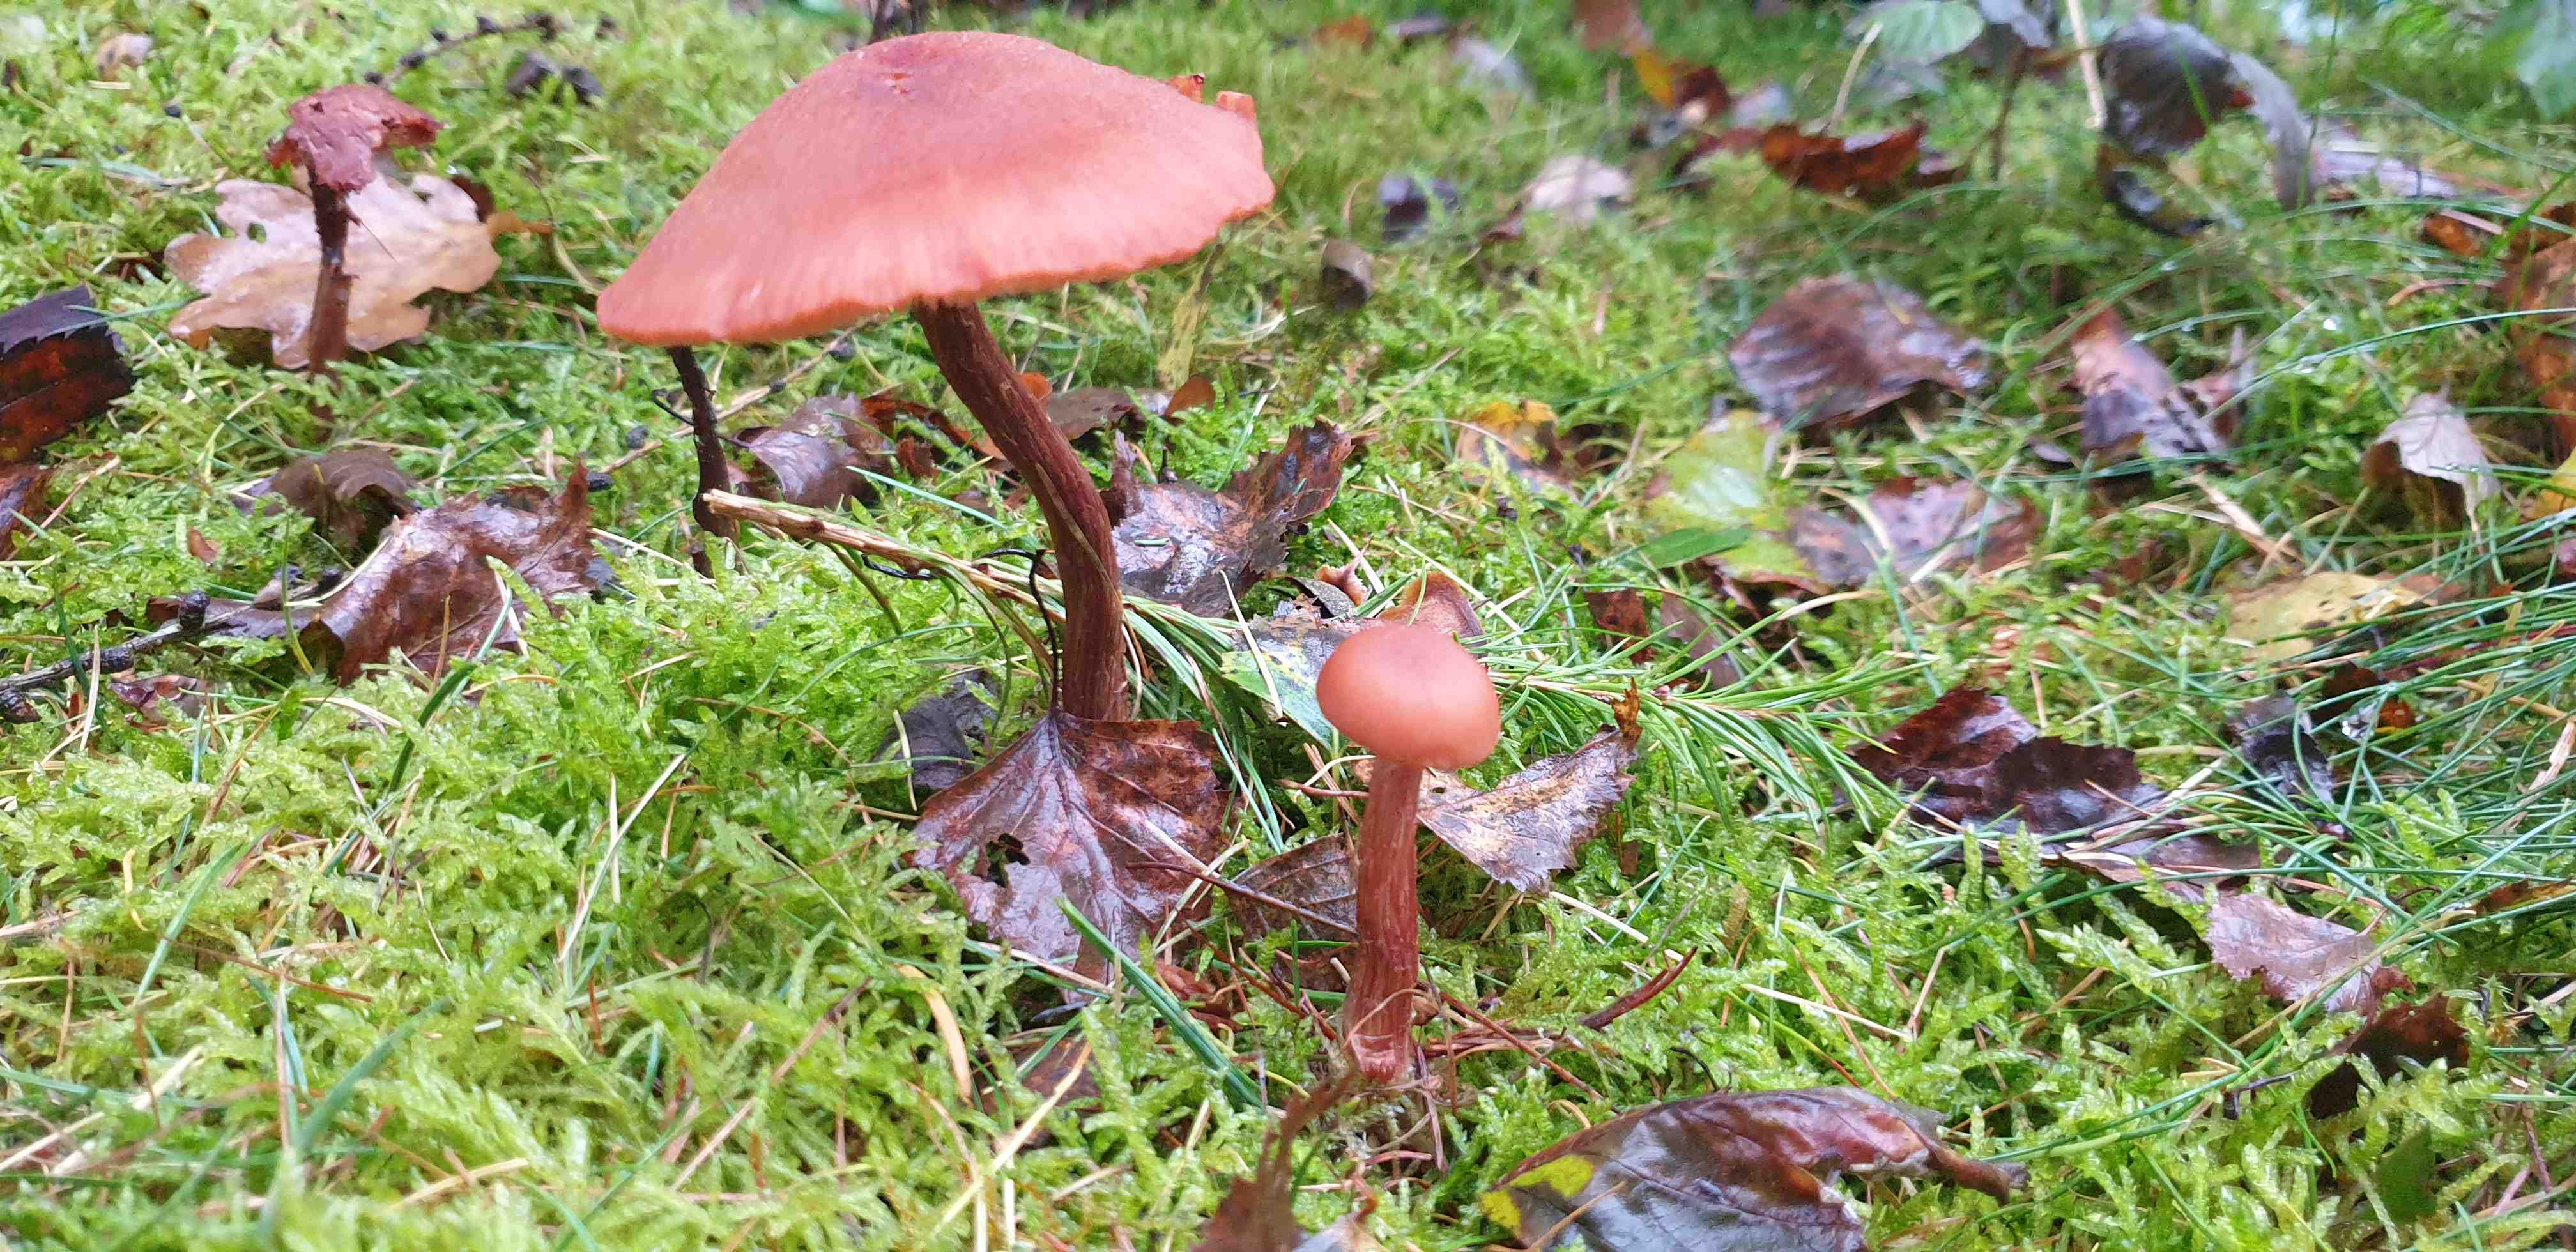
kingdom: Fungi
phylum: Basidiomycota
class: Agaricomycetes
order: Agaricales
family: Hydnangiaceae
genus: Laccaria
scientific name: Laccaria proxima
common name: stor ametysthat
